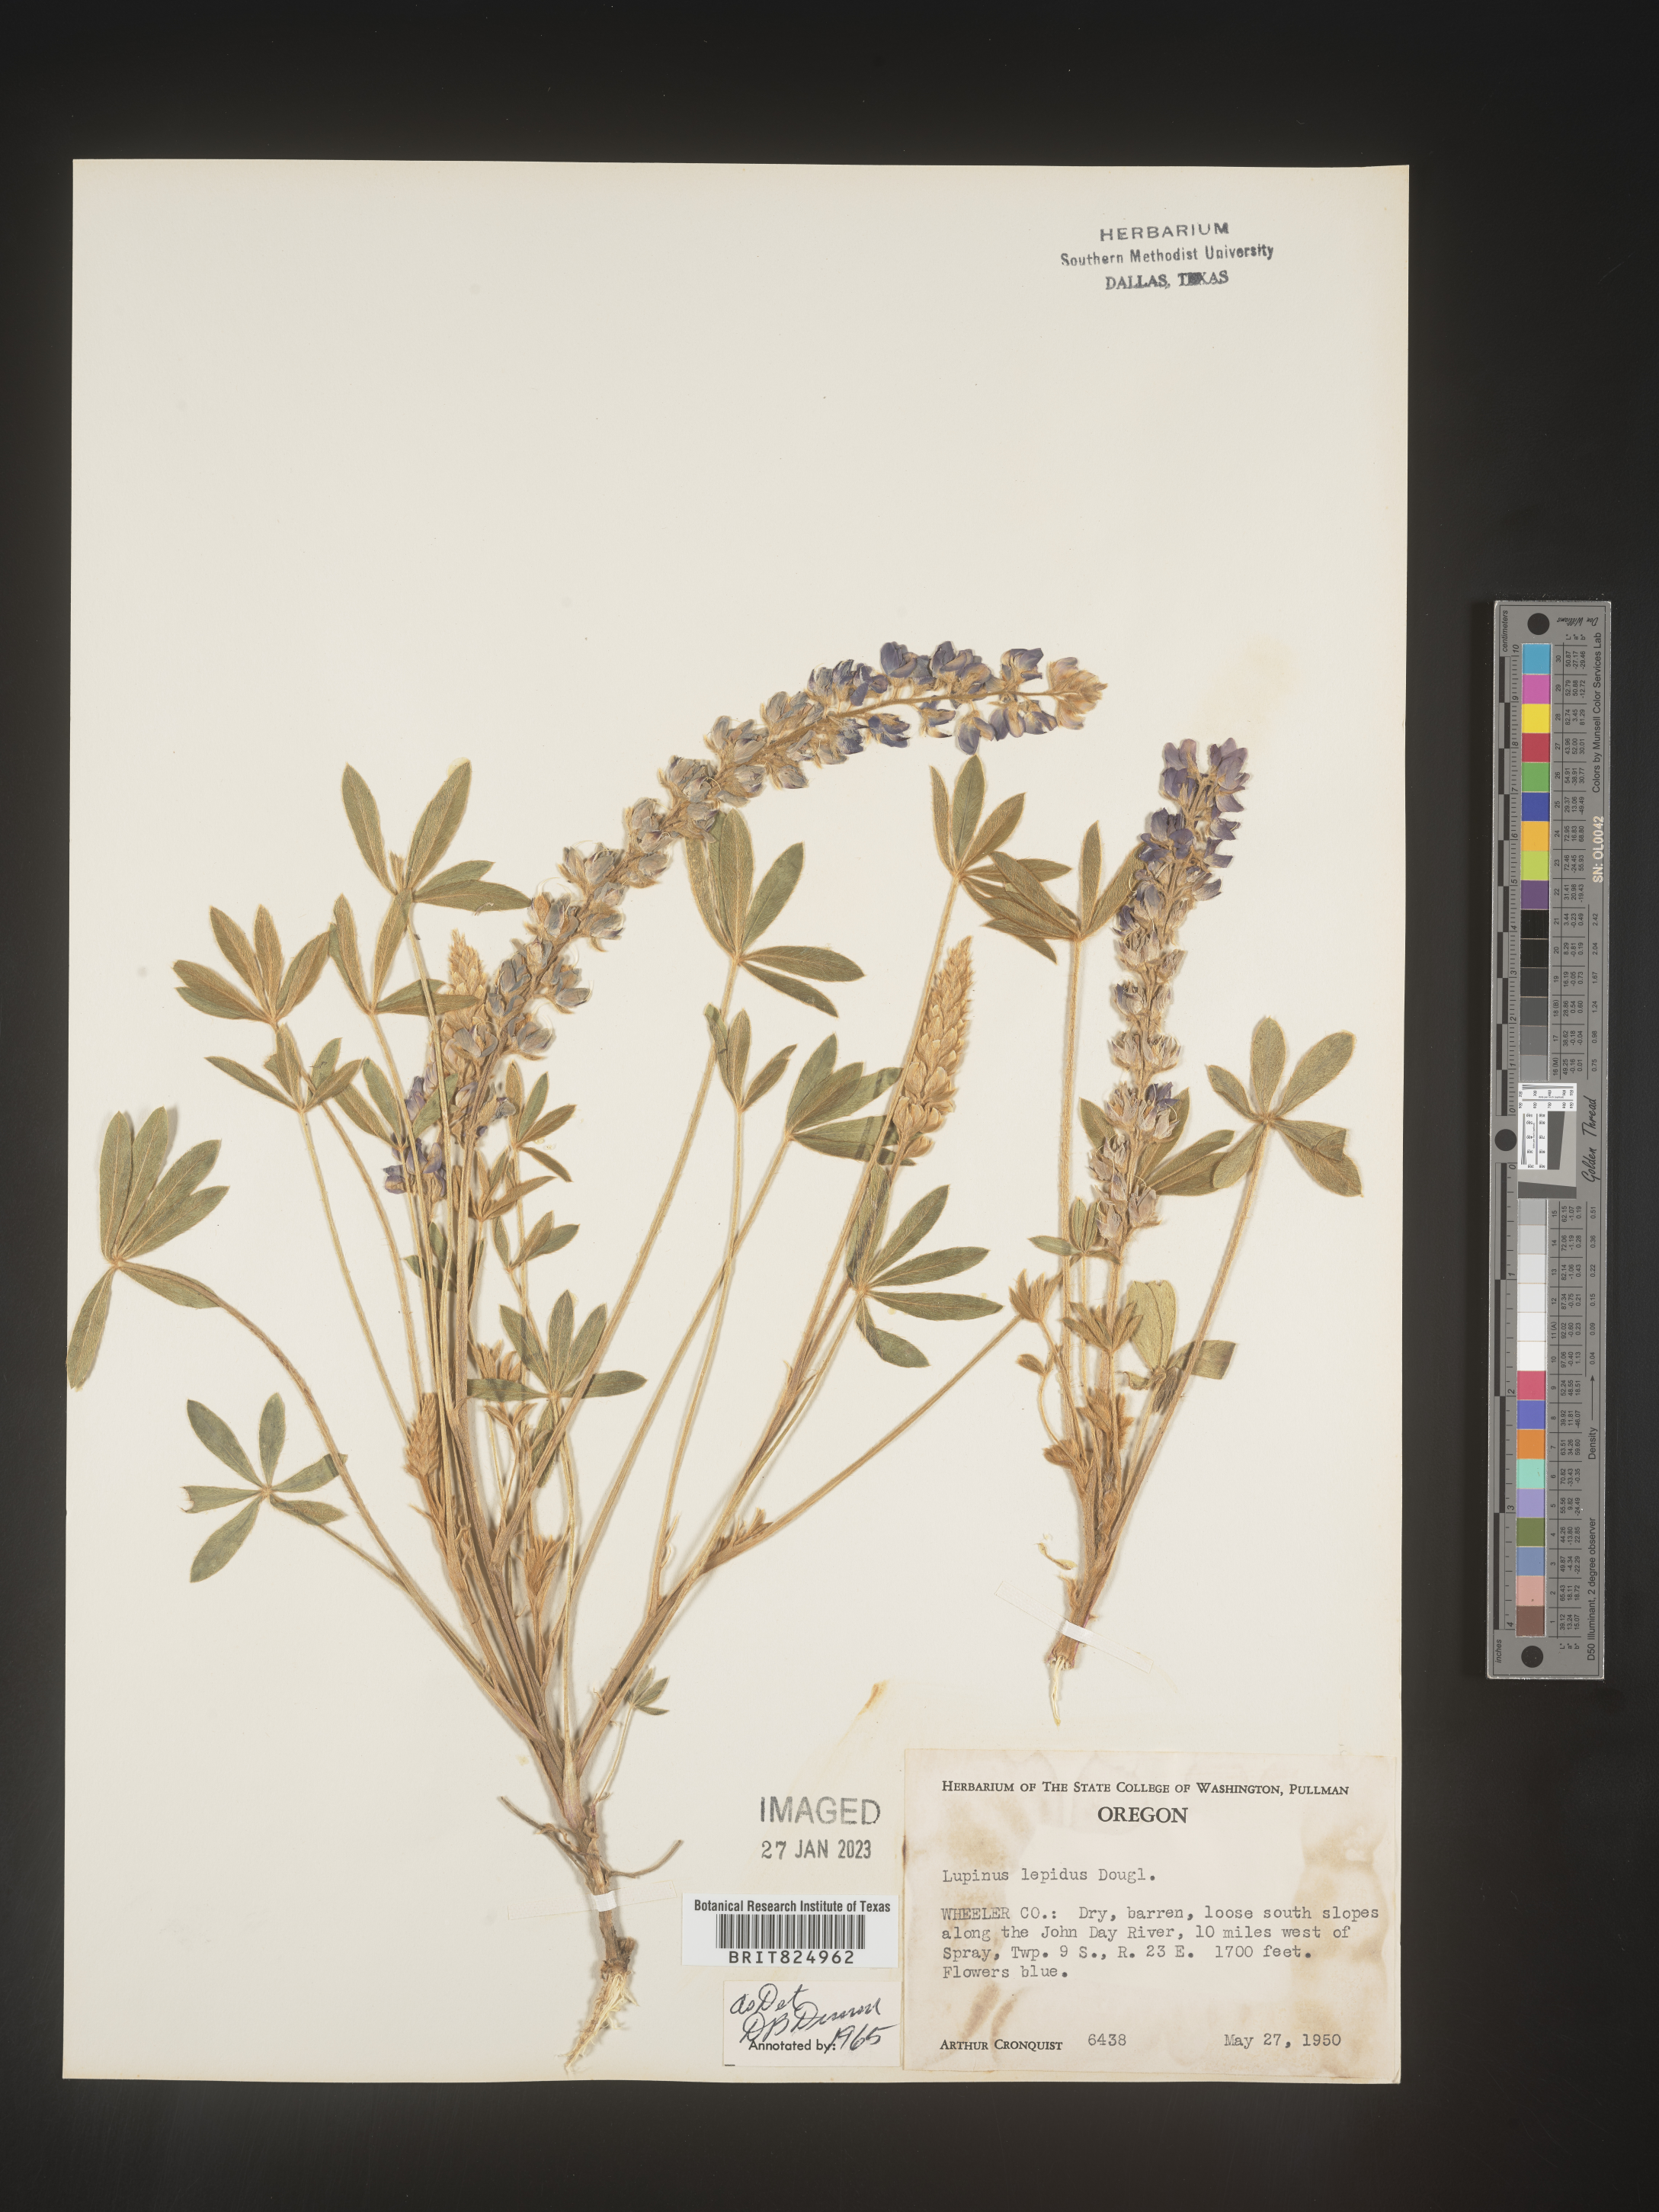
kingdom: Plantae
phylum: Tracheophyta
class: Magnoliopsida
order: Fabales
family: Fabaceae
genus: Lupinus
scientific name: Lupinus
